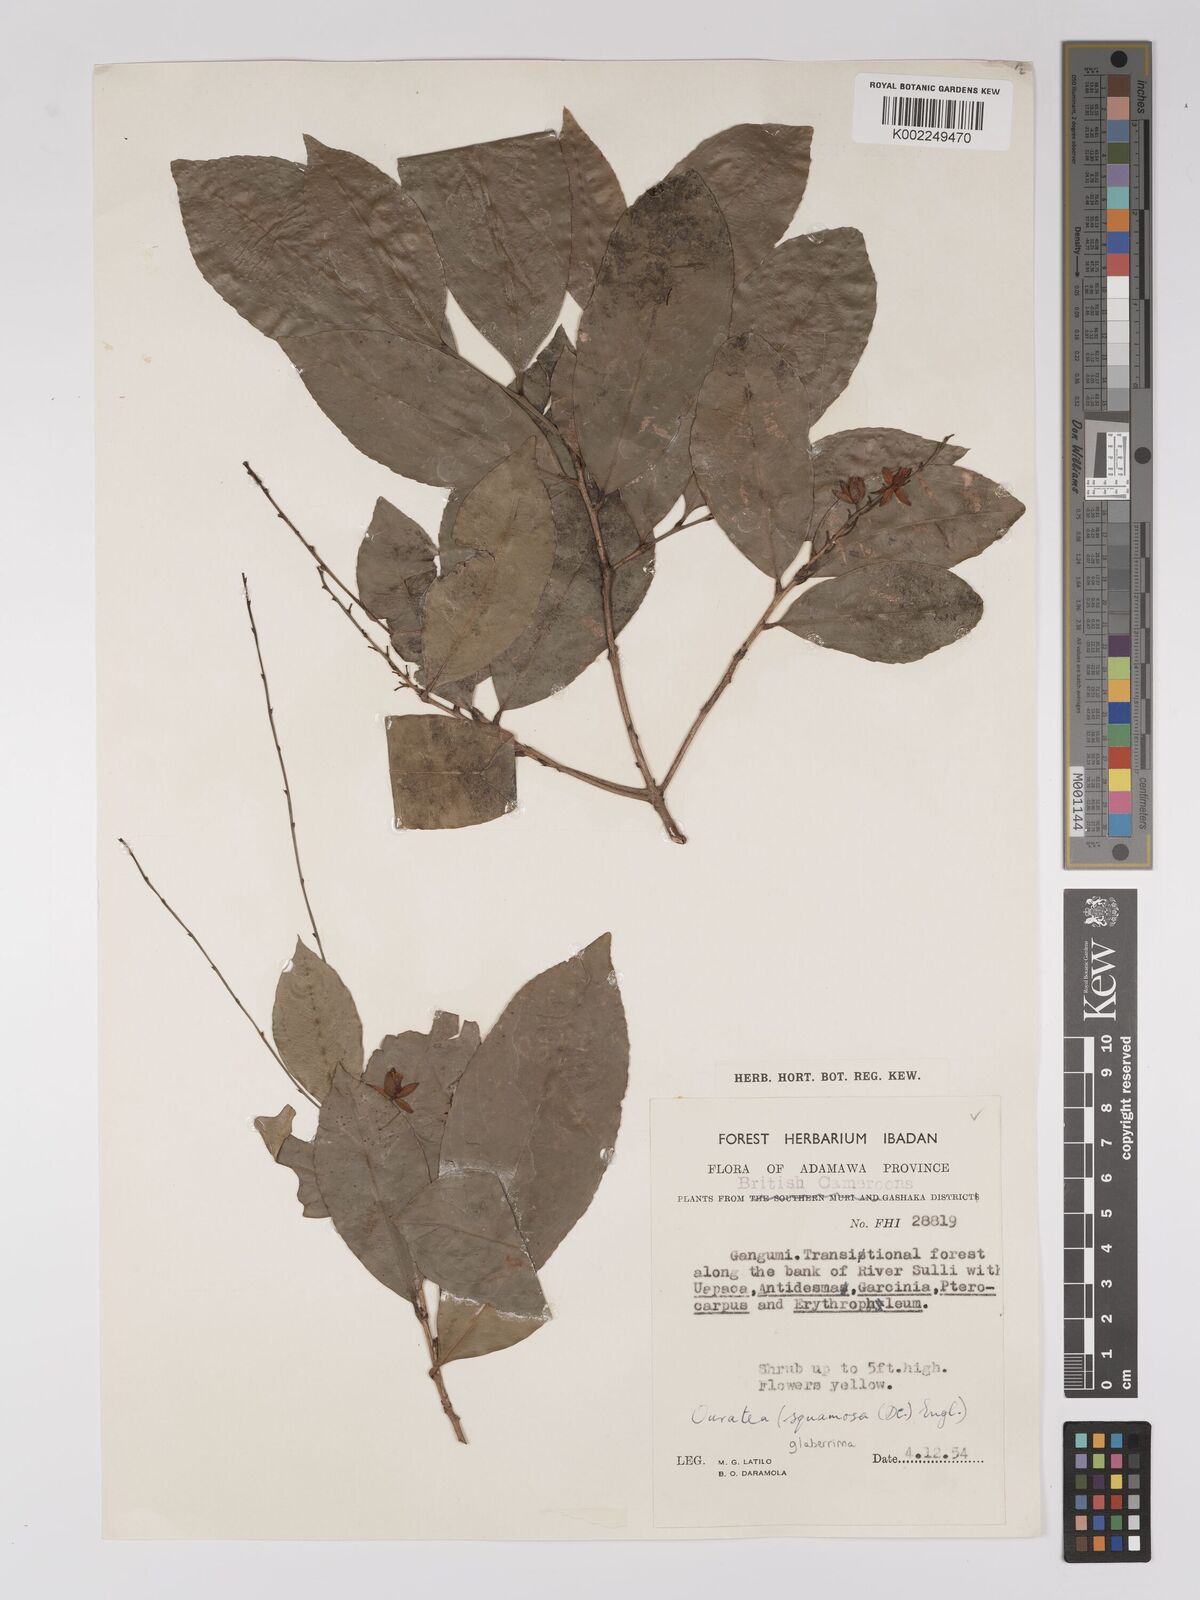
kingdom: Plantae
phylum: Tracheophyta
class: Magnoliopsida
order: Malpighiales
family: Ochnaceae
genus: Campylospermum
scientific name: Campylospermum glaberrimum
